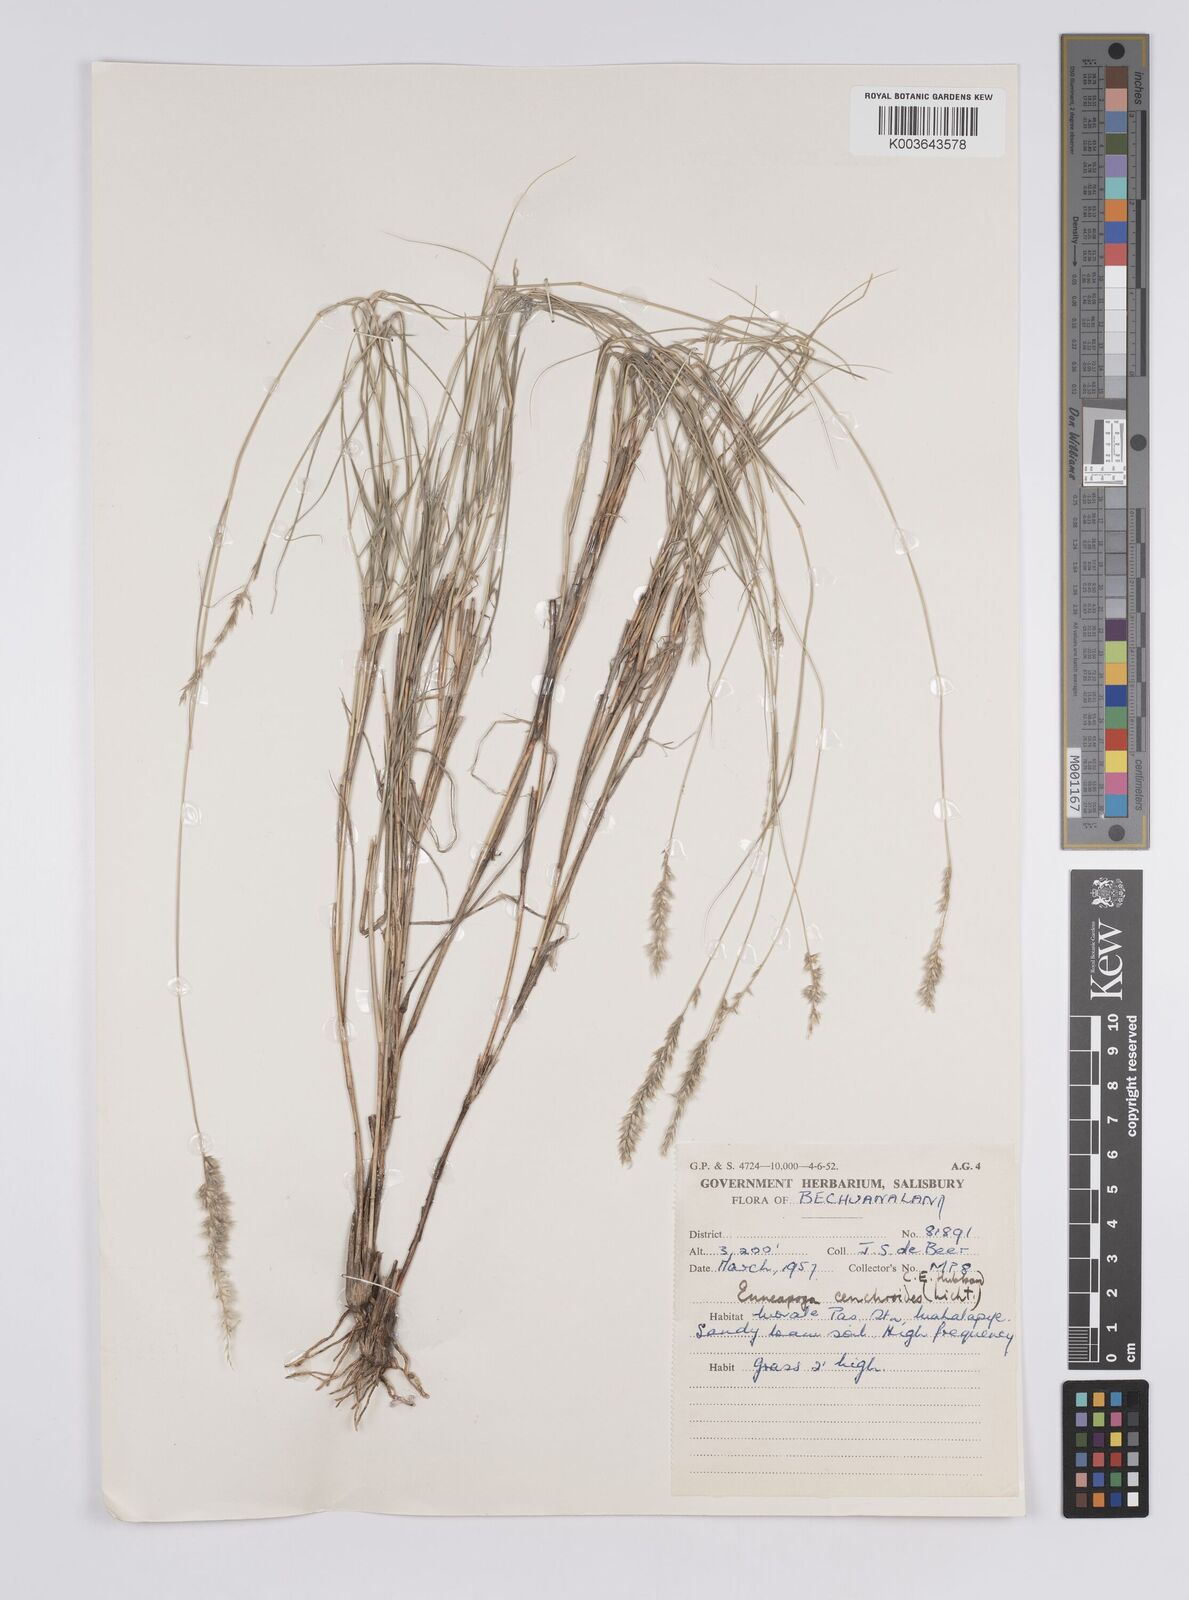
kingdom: Plantae
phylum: Tracheophyta
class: Liliopsida
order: Poales
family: Poaceae
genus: Enneapogon
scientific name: Enneapogon scoparius
